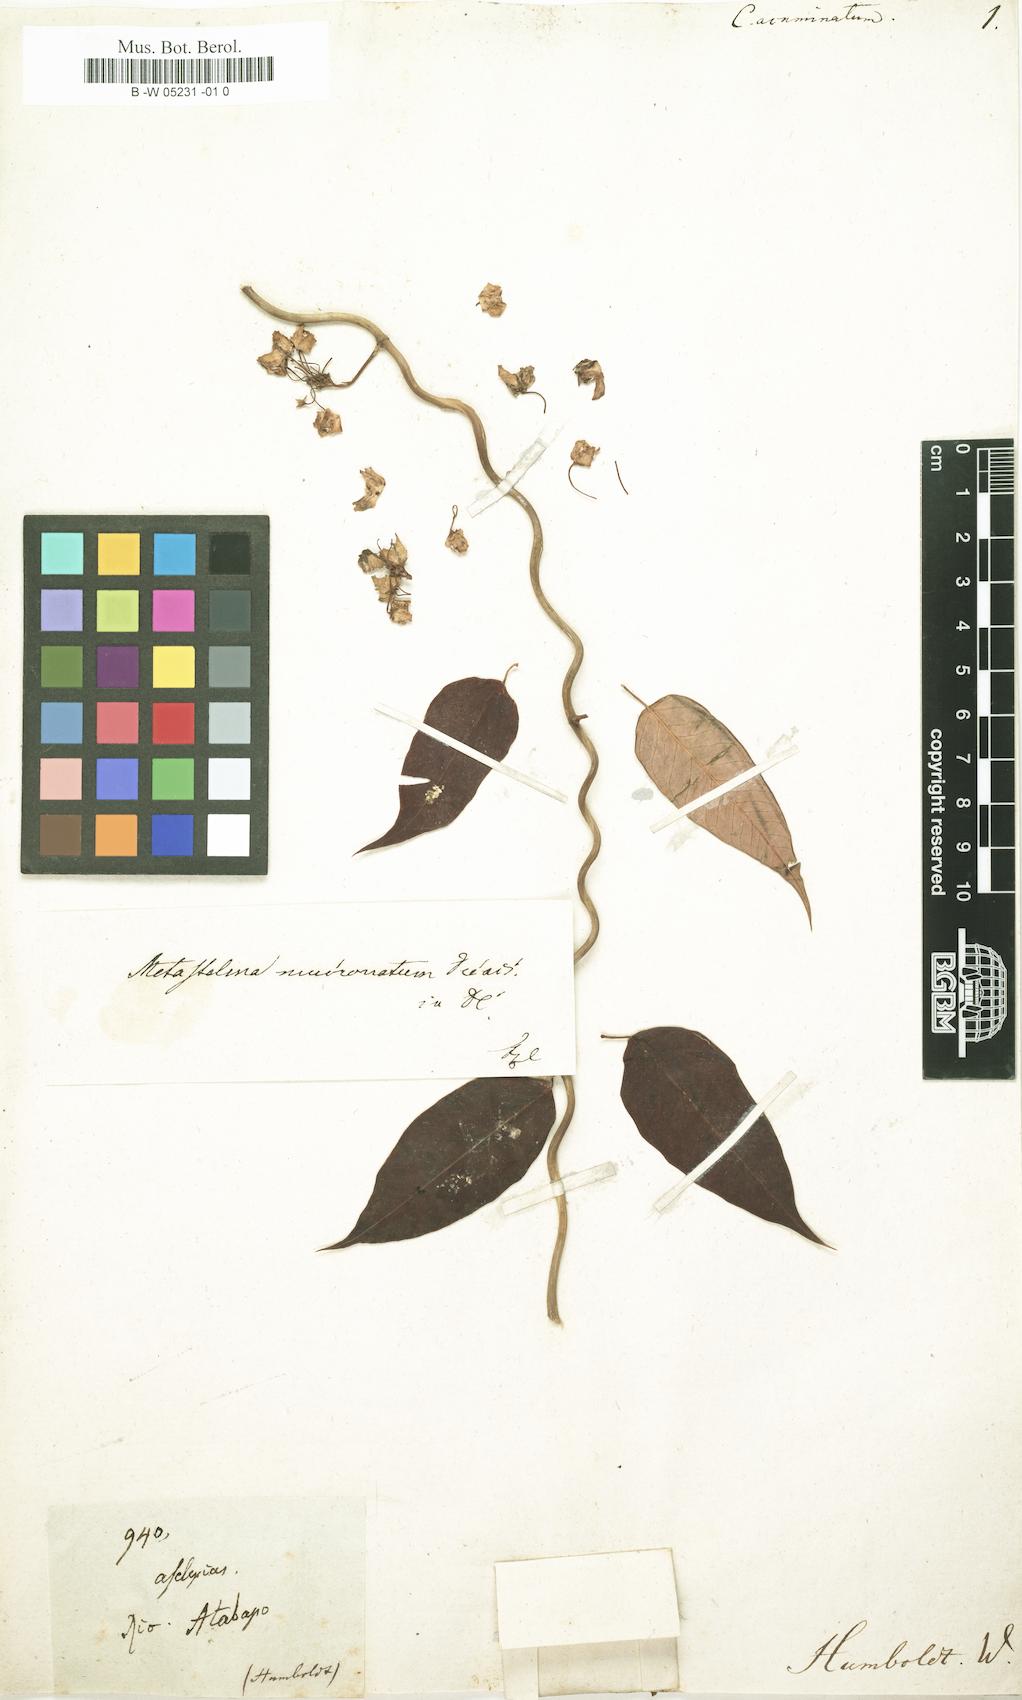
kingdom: Plantae
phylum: Tracheophyta
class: Magnoliopsida
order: Gentianales
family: Apocynaceae
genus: Cynanchum
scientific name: Cynanchum adalinae
